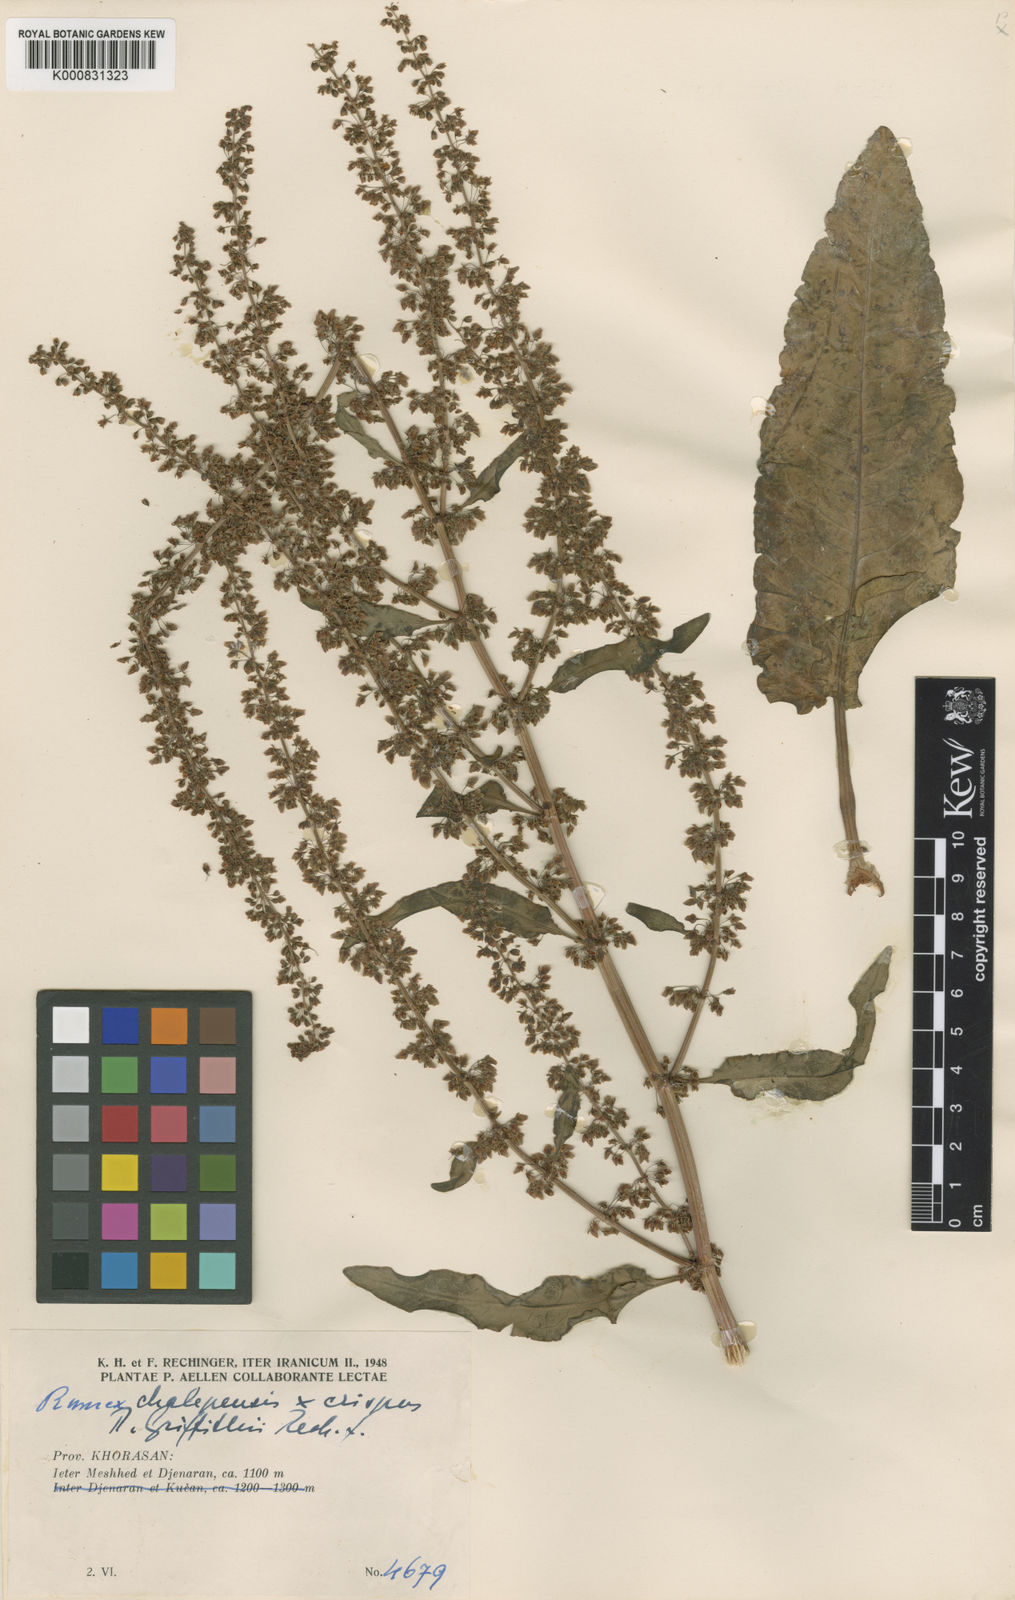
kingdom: Plantae
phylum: Tracheophyta
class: Magnoliopsida
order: Caryophyllales
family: Polygonaceae
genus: Rumex
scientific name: Rumex griffithii
